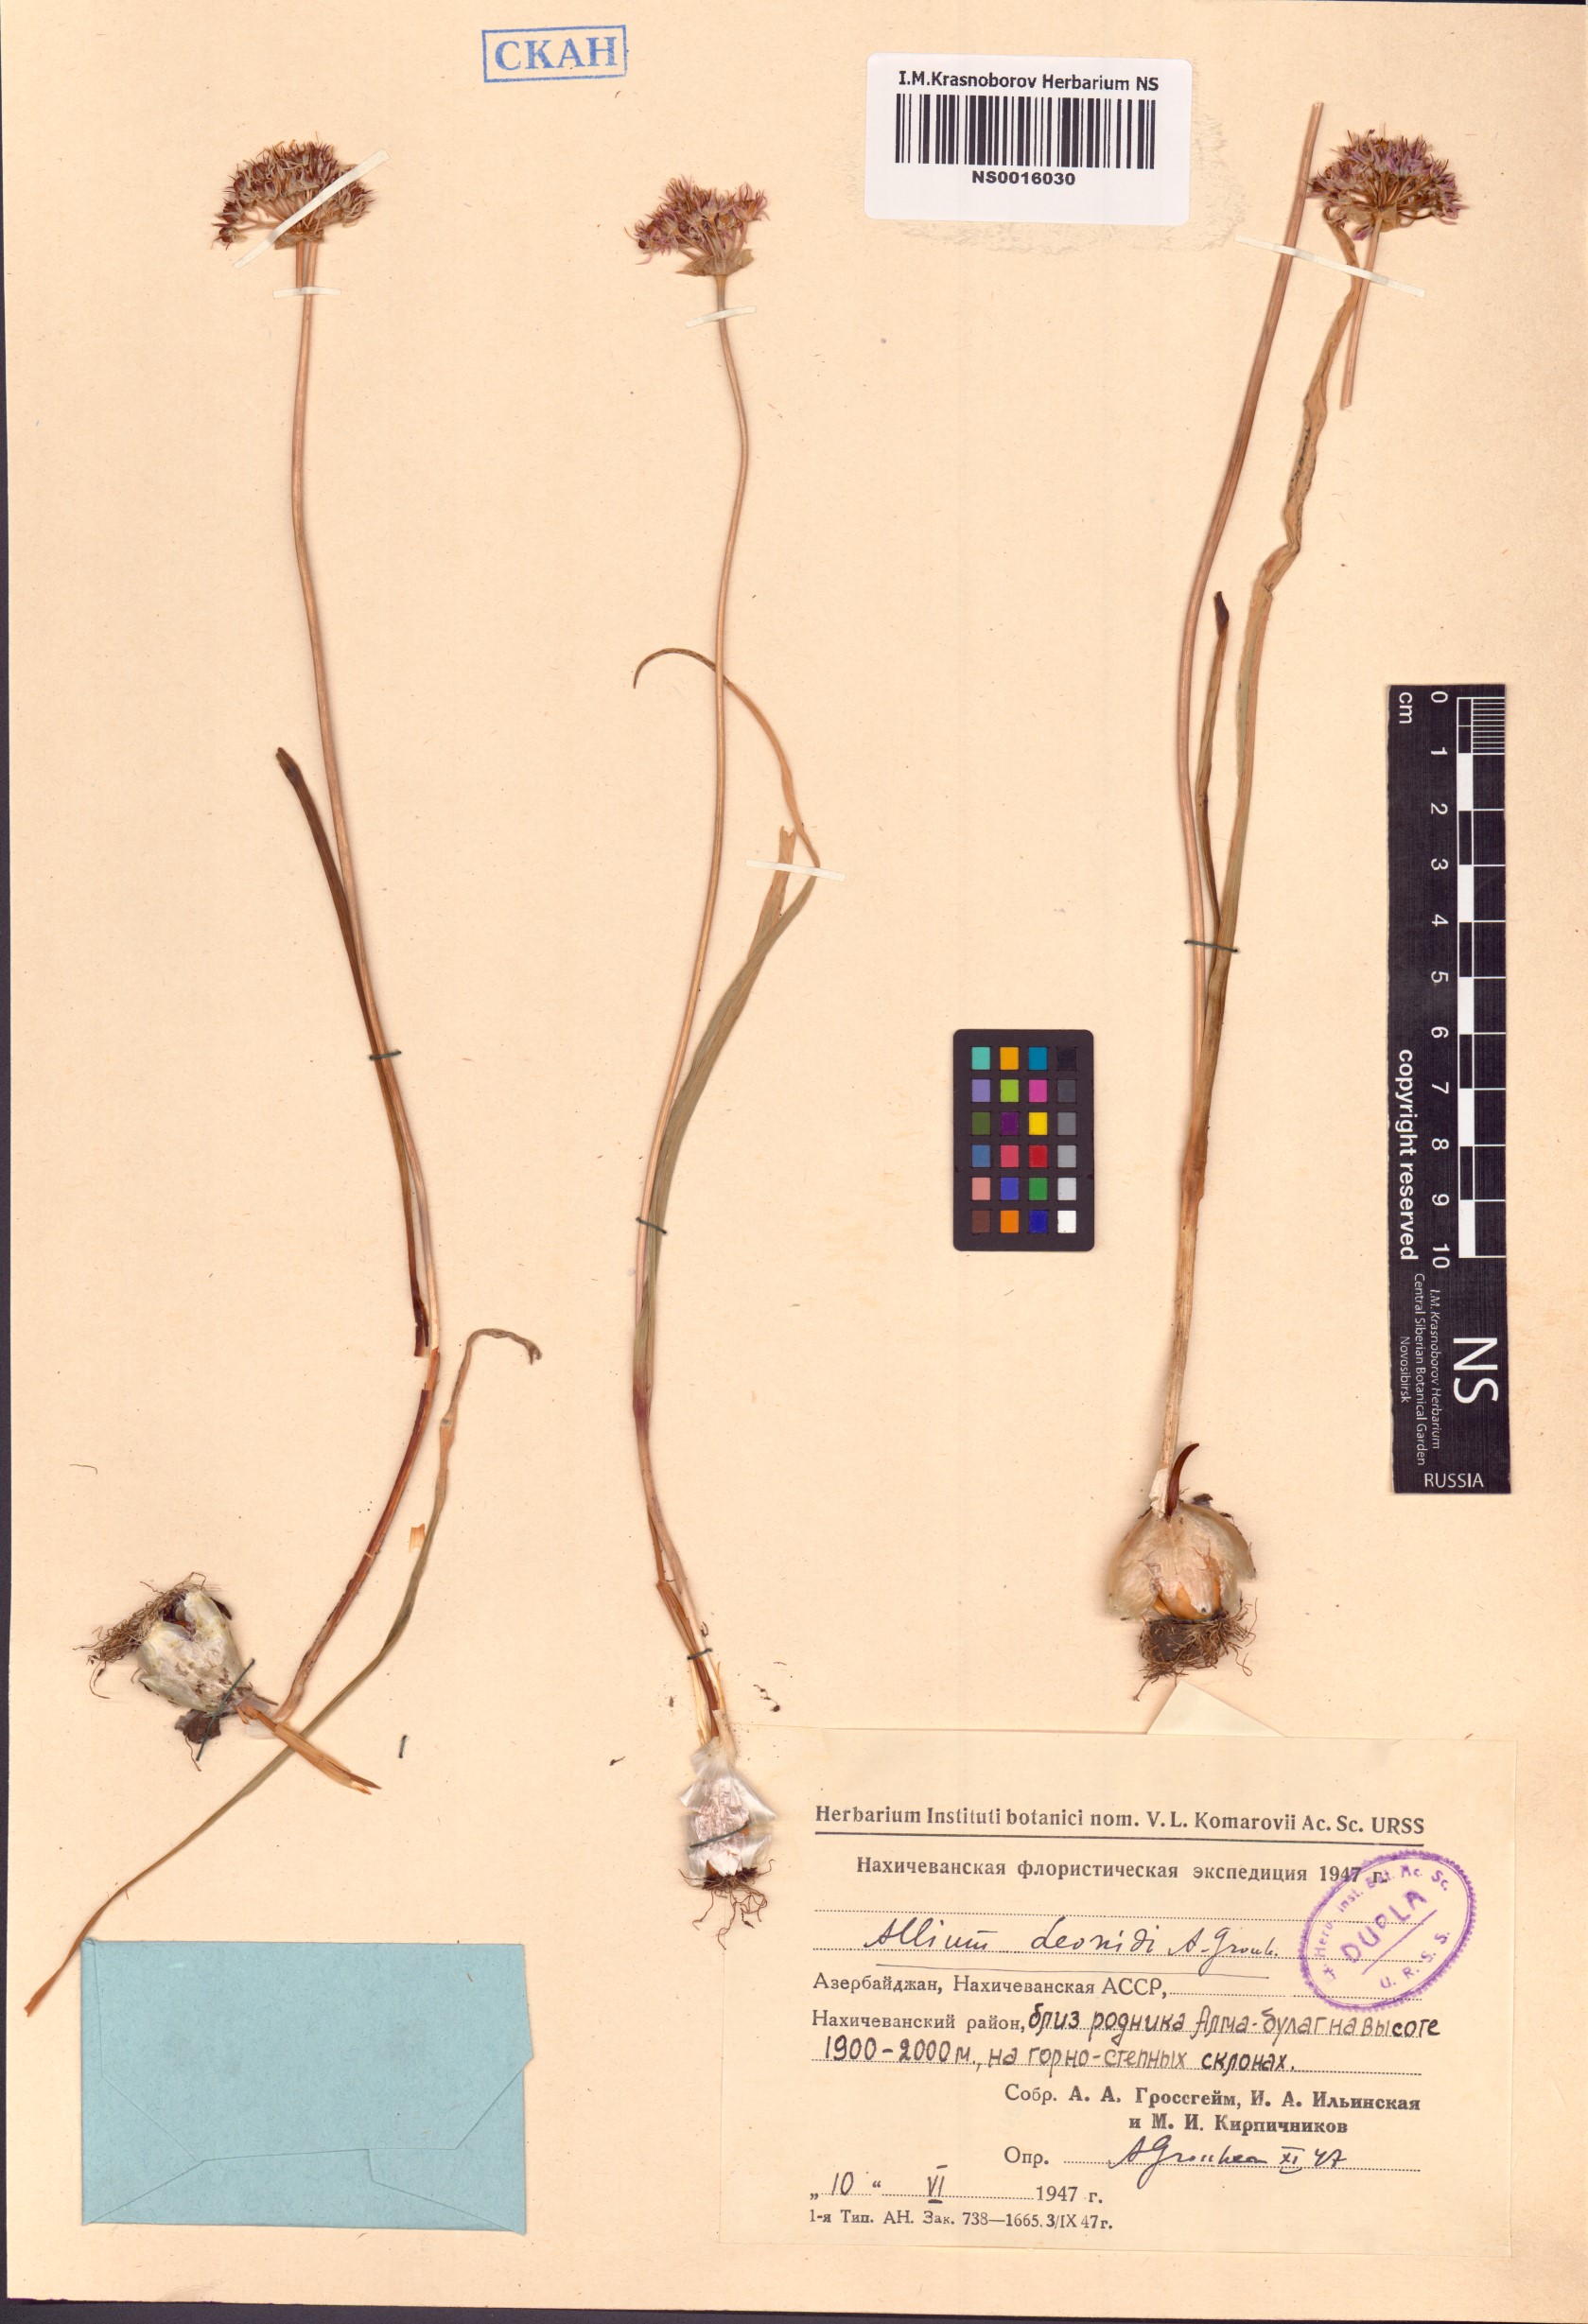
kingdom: Plantae
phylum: Tracheophyta
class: Liliopsida
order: Asparagales
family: Amaryllidaceae
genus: Allium
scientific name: Allium woronowii
